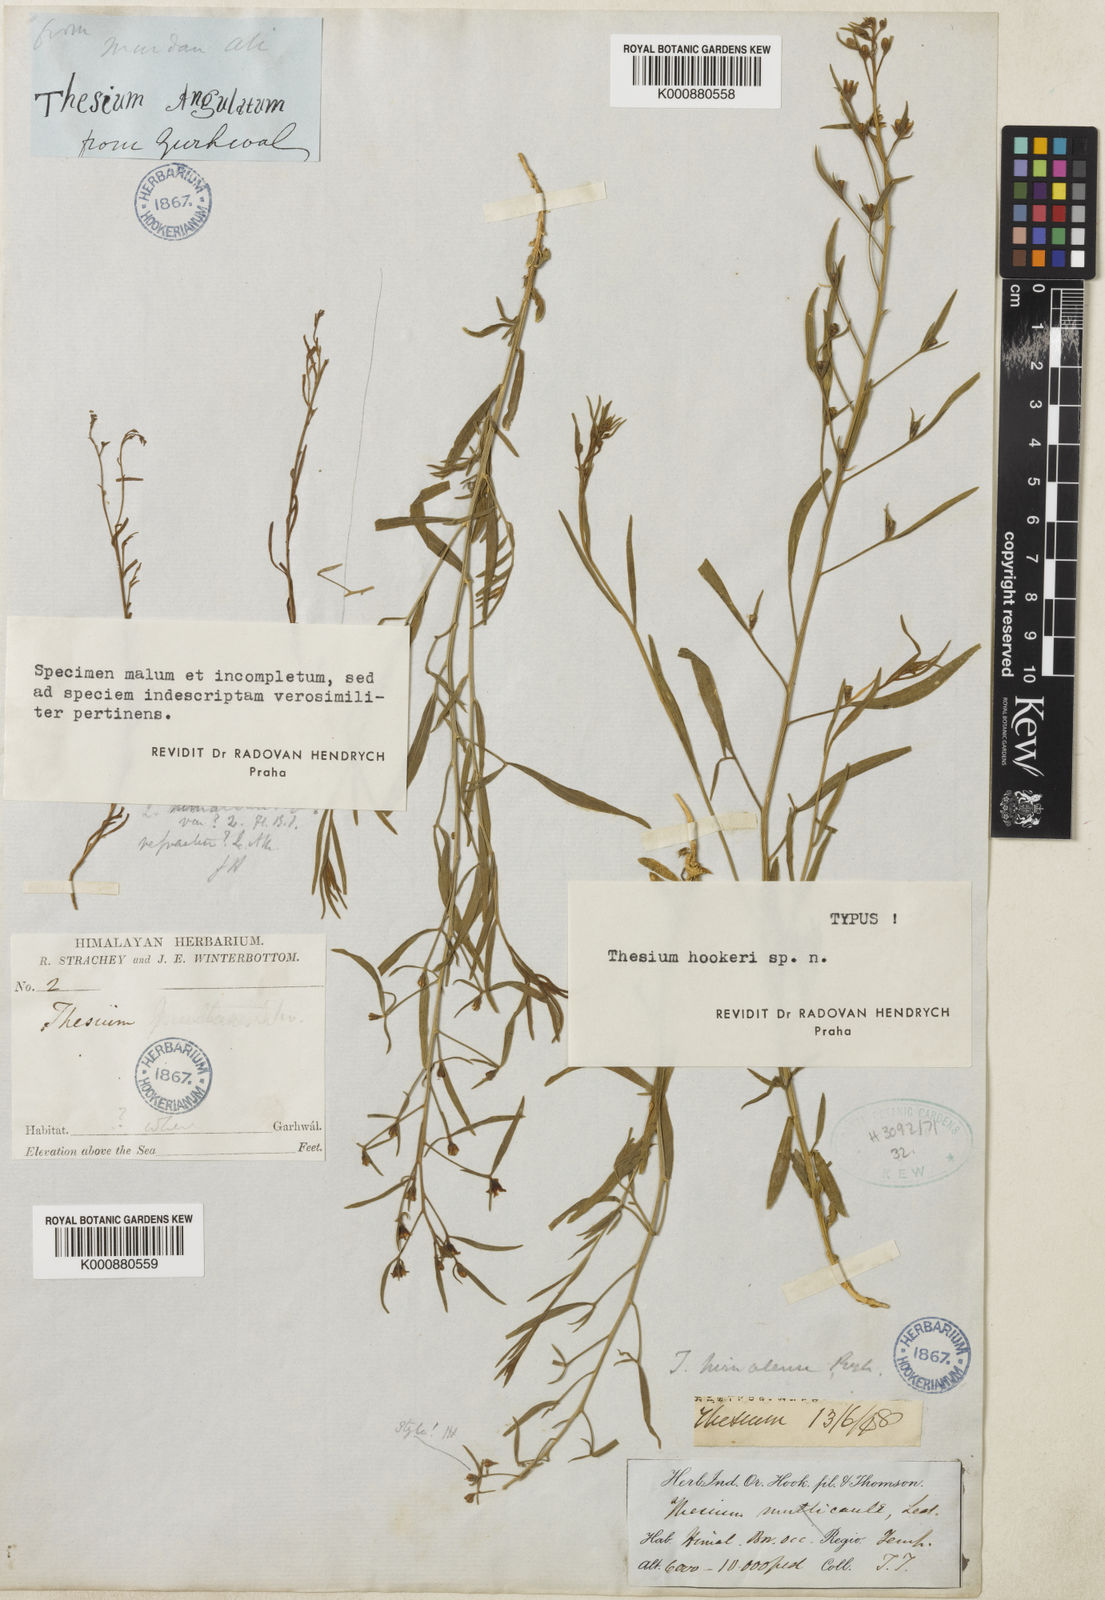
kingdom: Plantae
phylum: Tracheophyta
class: Magnoliopsida
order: Santalales
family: Thesiaceae
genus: Thesium
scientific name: Thesium hookeri
